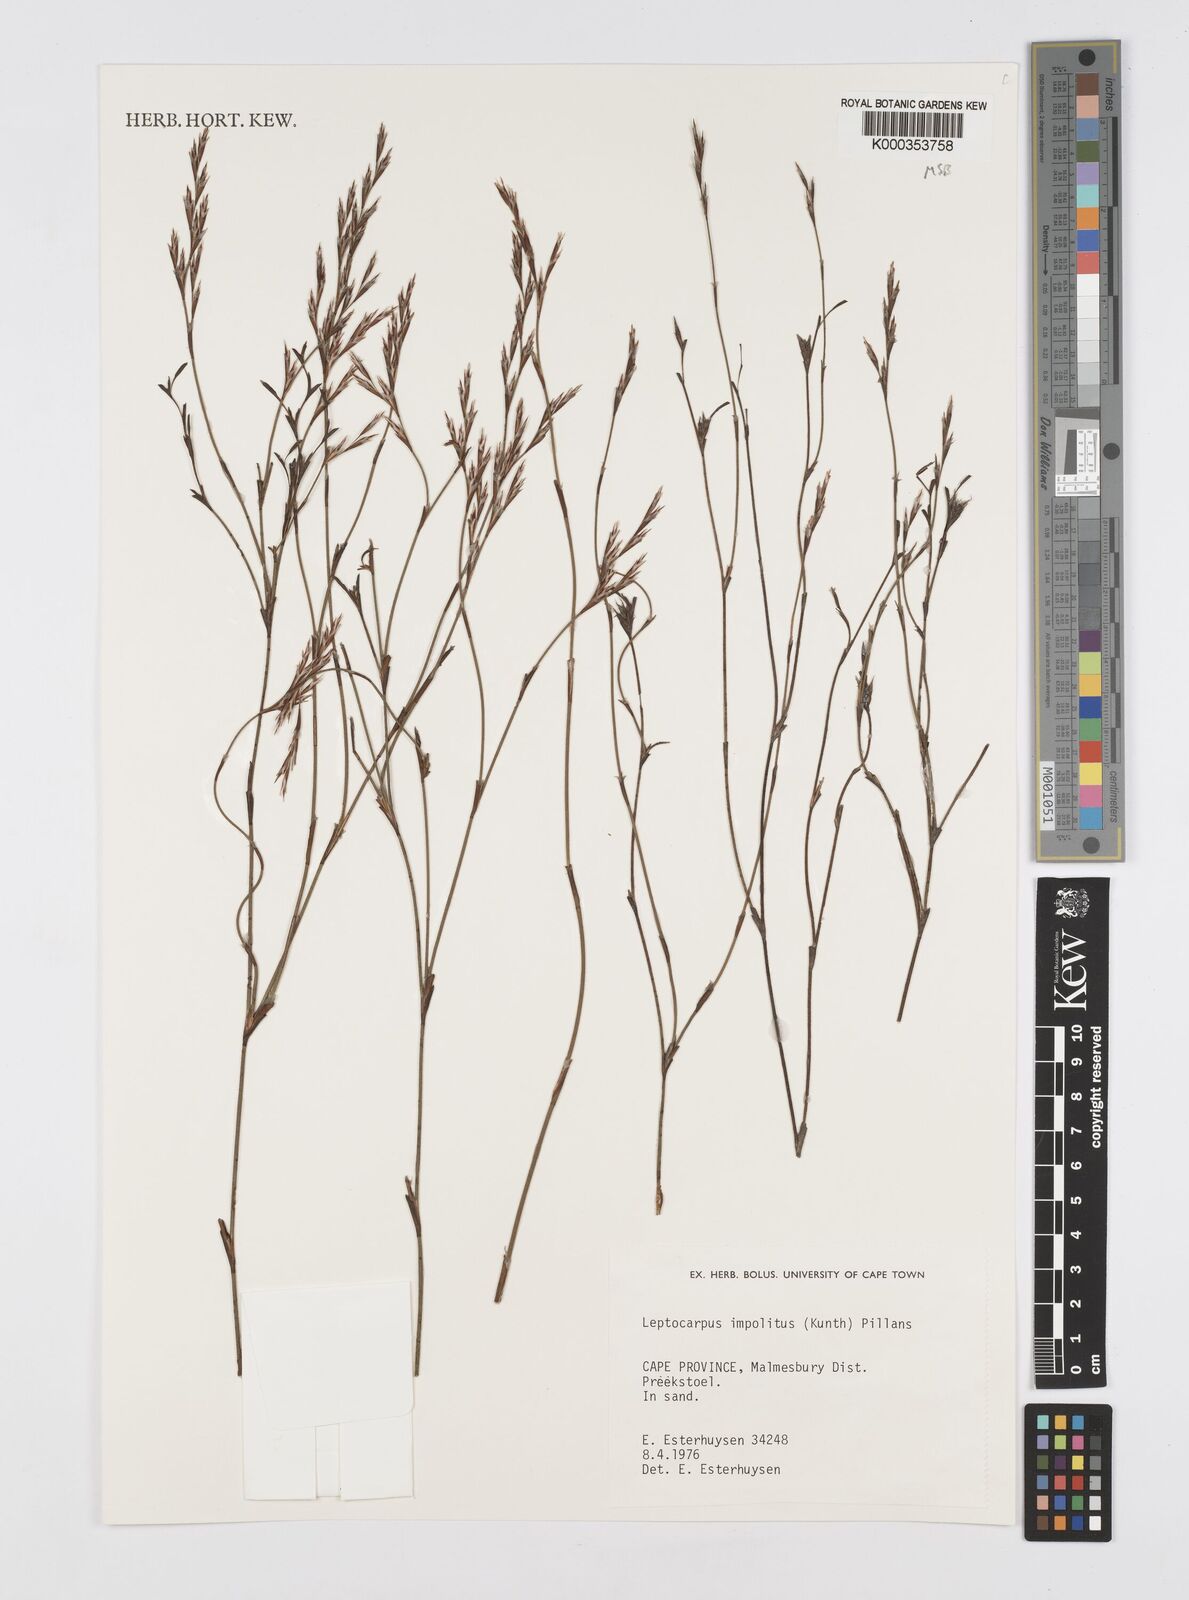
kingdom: Plantae
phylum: Tracheophyta
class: Liliopsida
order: Poales
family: Restionaceae
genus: Restio
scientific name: Restio impolitus
